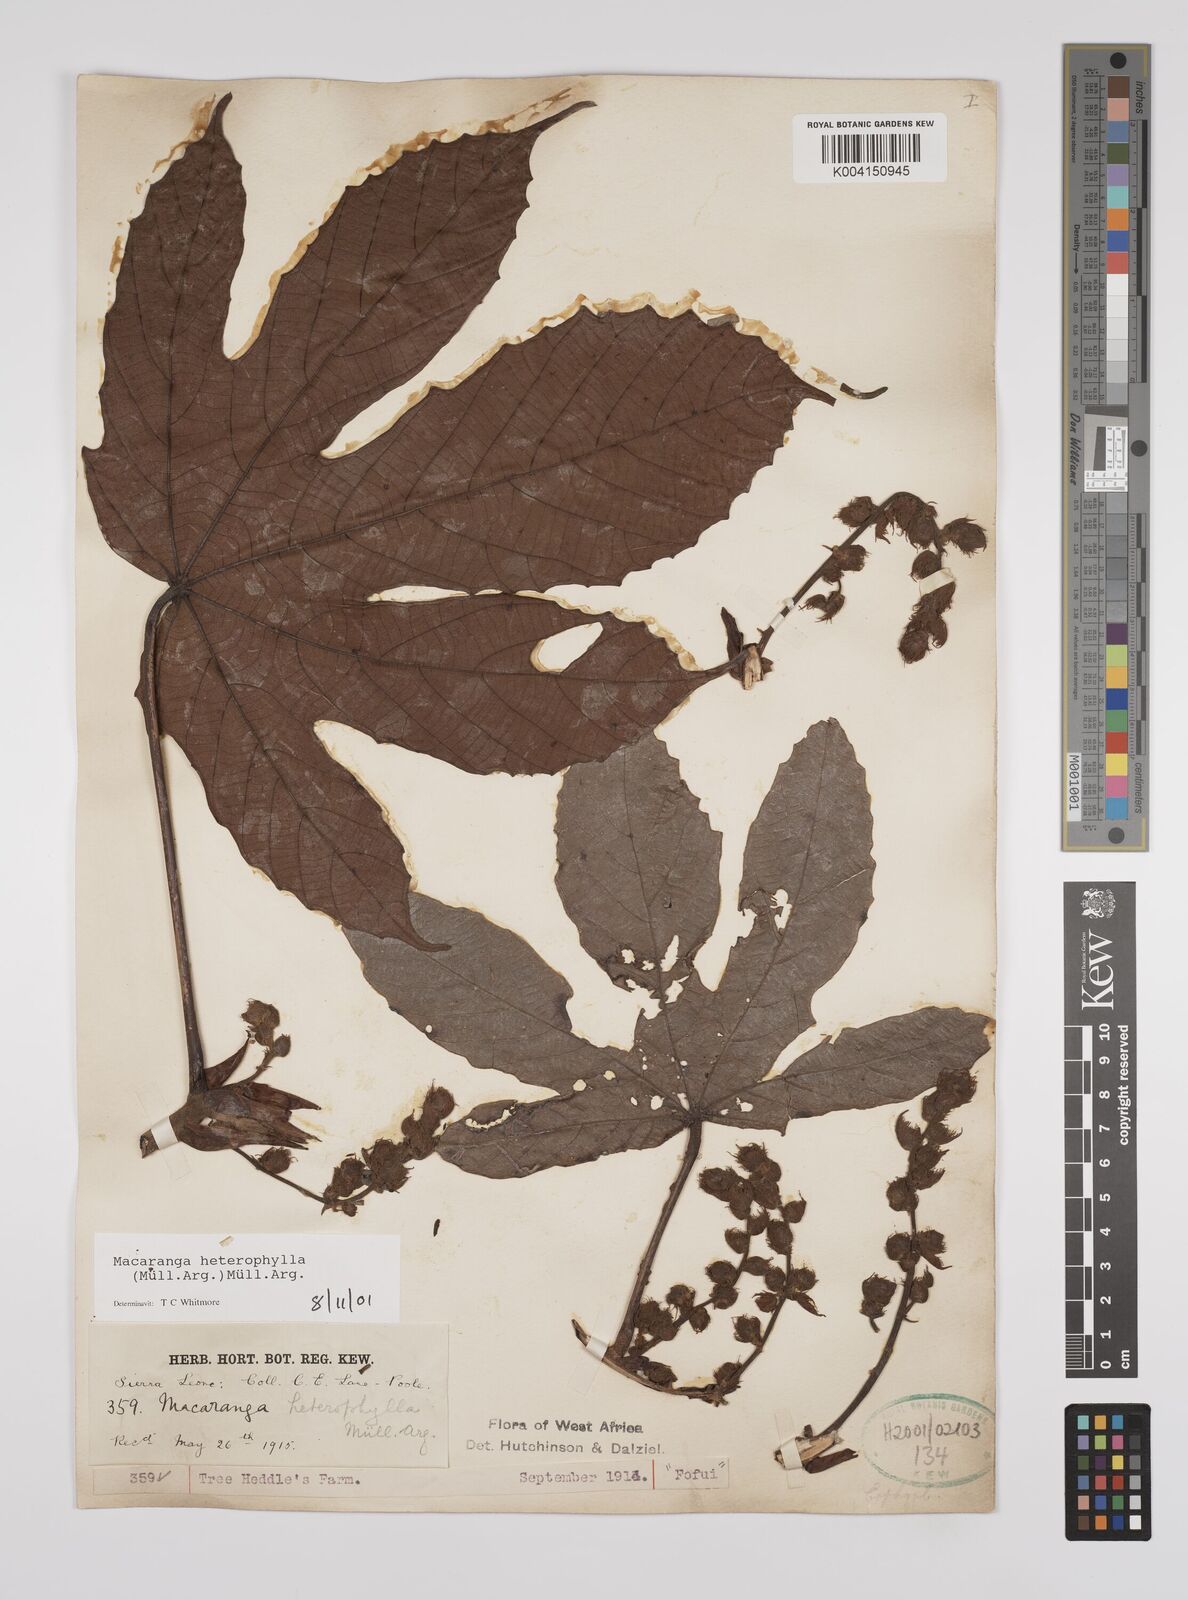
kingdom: Plantae
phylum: Tracheophyta
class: Magnoliopsida
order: Malpighiales
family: Euphorbiaceae
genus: Macaranga
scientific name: Macaranga heterophylla
